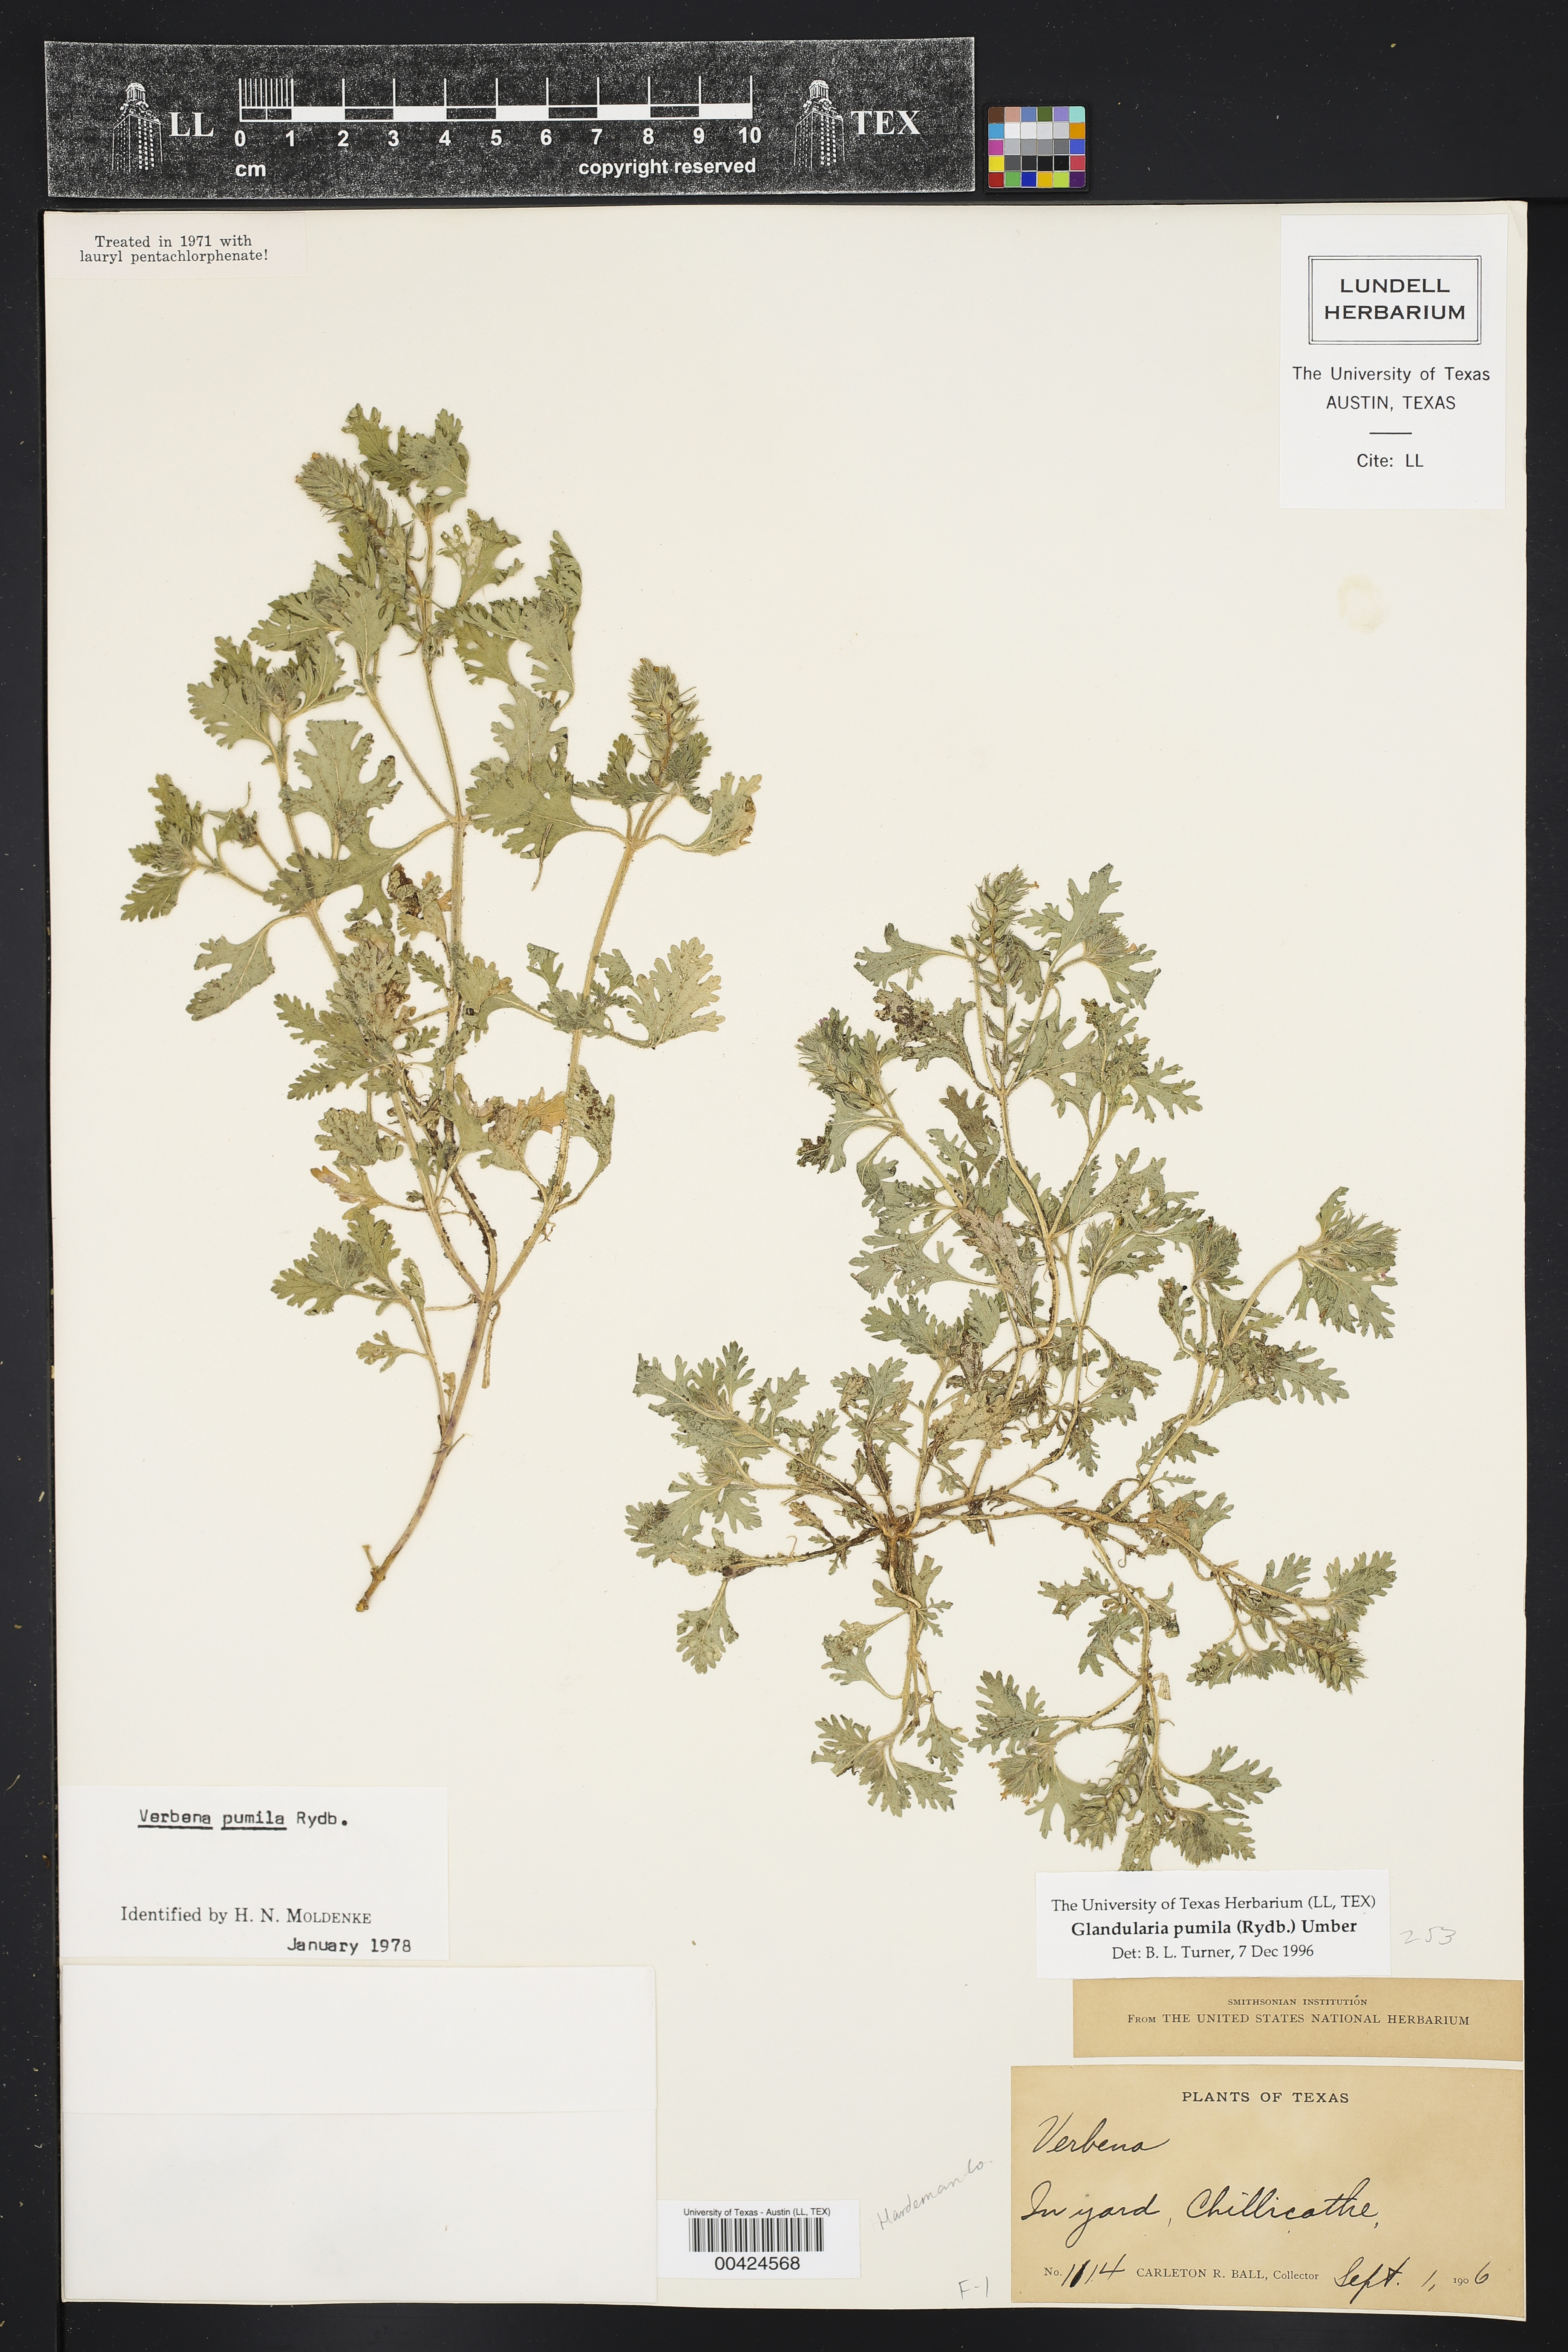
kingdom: Plantae
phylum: Tracheophyta
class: Magnoliopsida
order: Lamiales
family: Verbenaceae
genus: Verbena
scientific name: Verbena pumila
